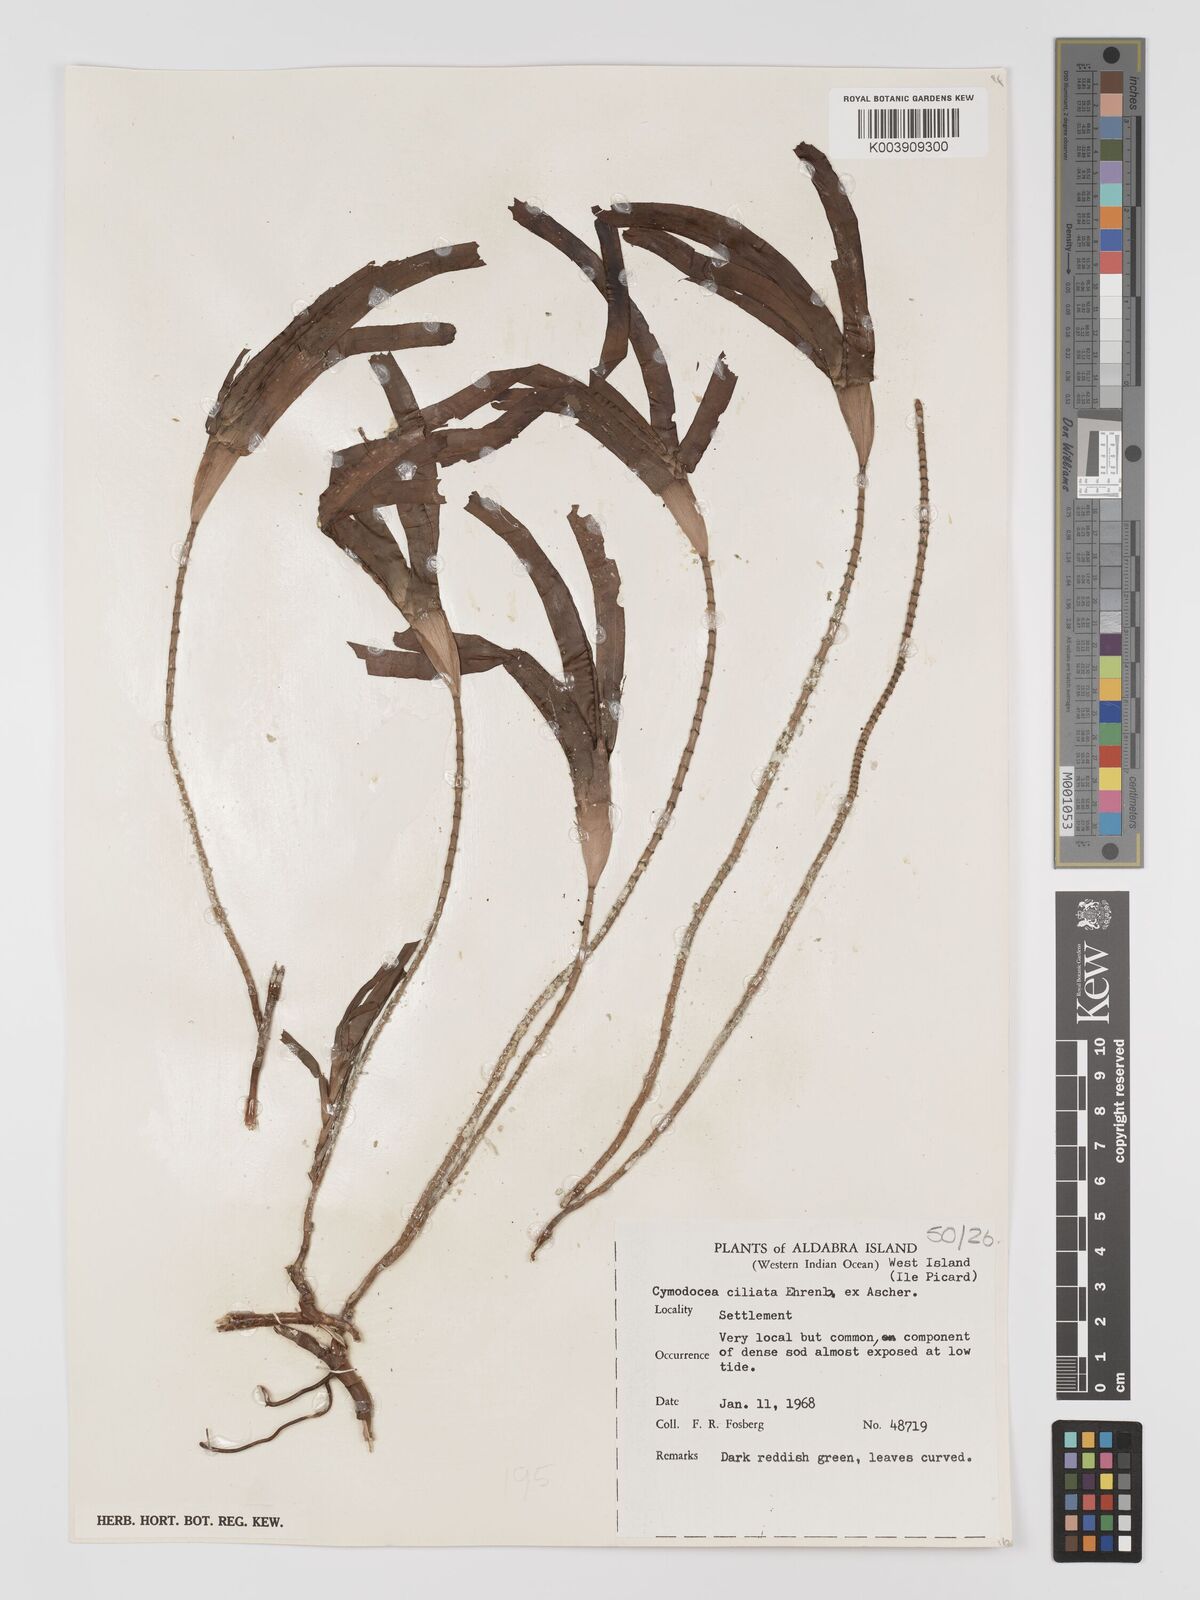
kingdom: Plantae
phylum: Tracheophyta
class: Liliopsida
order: Alismatales
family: Cymodoceaceae
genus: Thalassodendron
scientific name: Thalassodendron ciliatum
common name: Species code: tc
